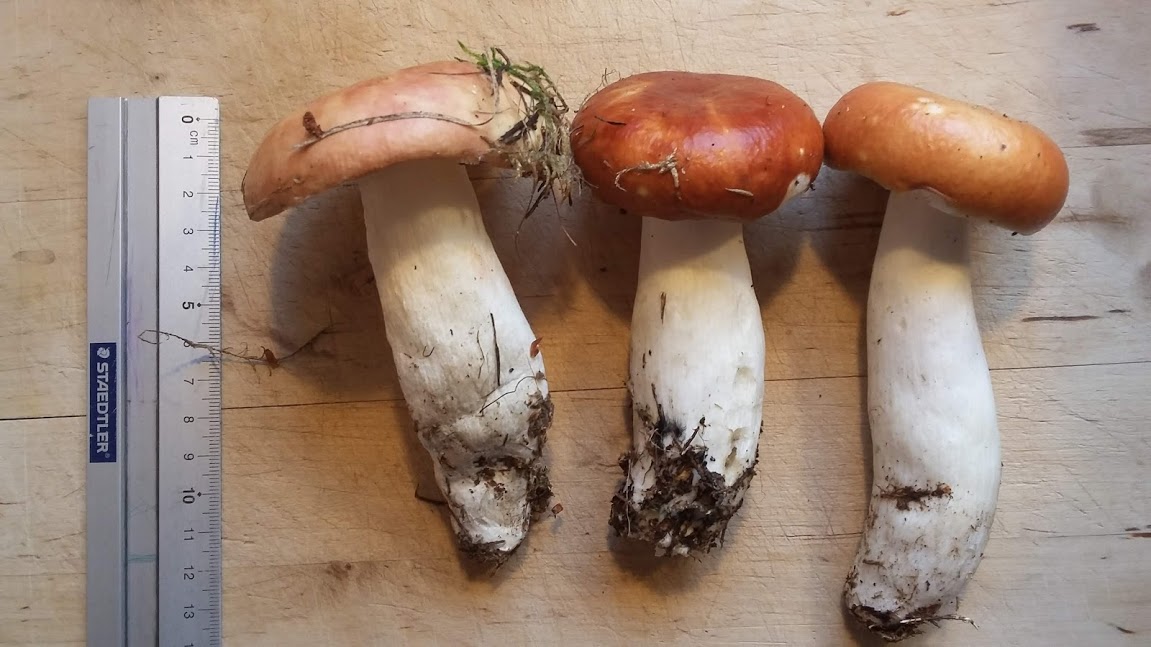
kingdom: Fungi
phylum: Basidiomycota
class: Agaricomycetes
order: Russulales
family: Russulaceae
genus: Russula
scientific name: Russula paludosa
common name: prægtig skørhat
